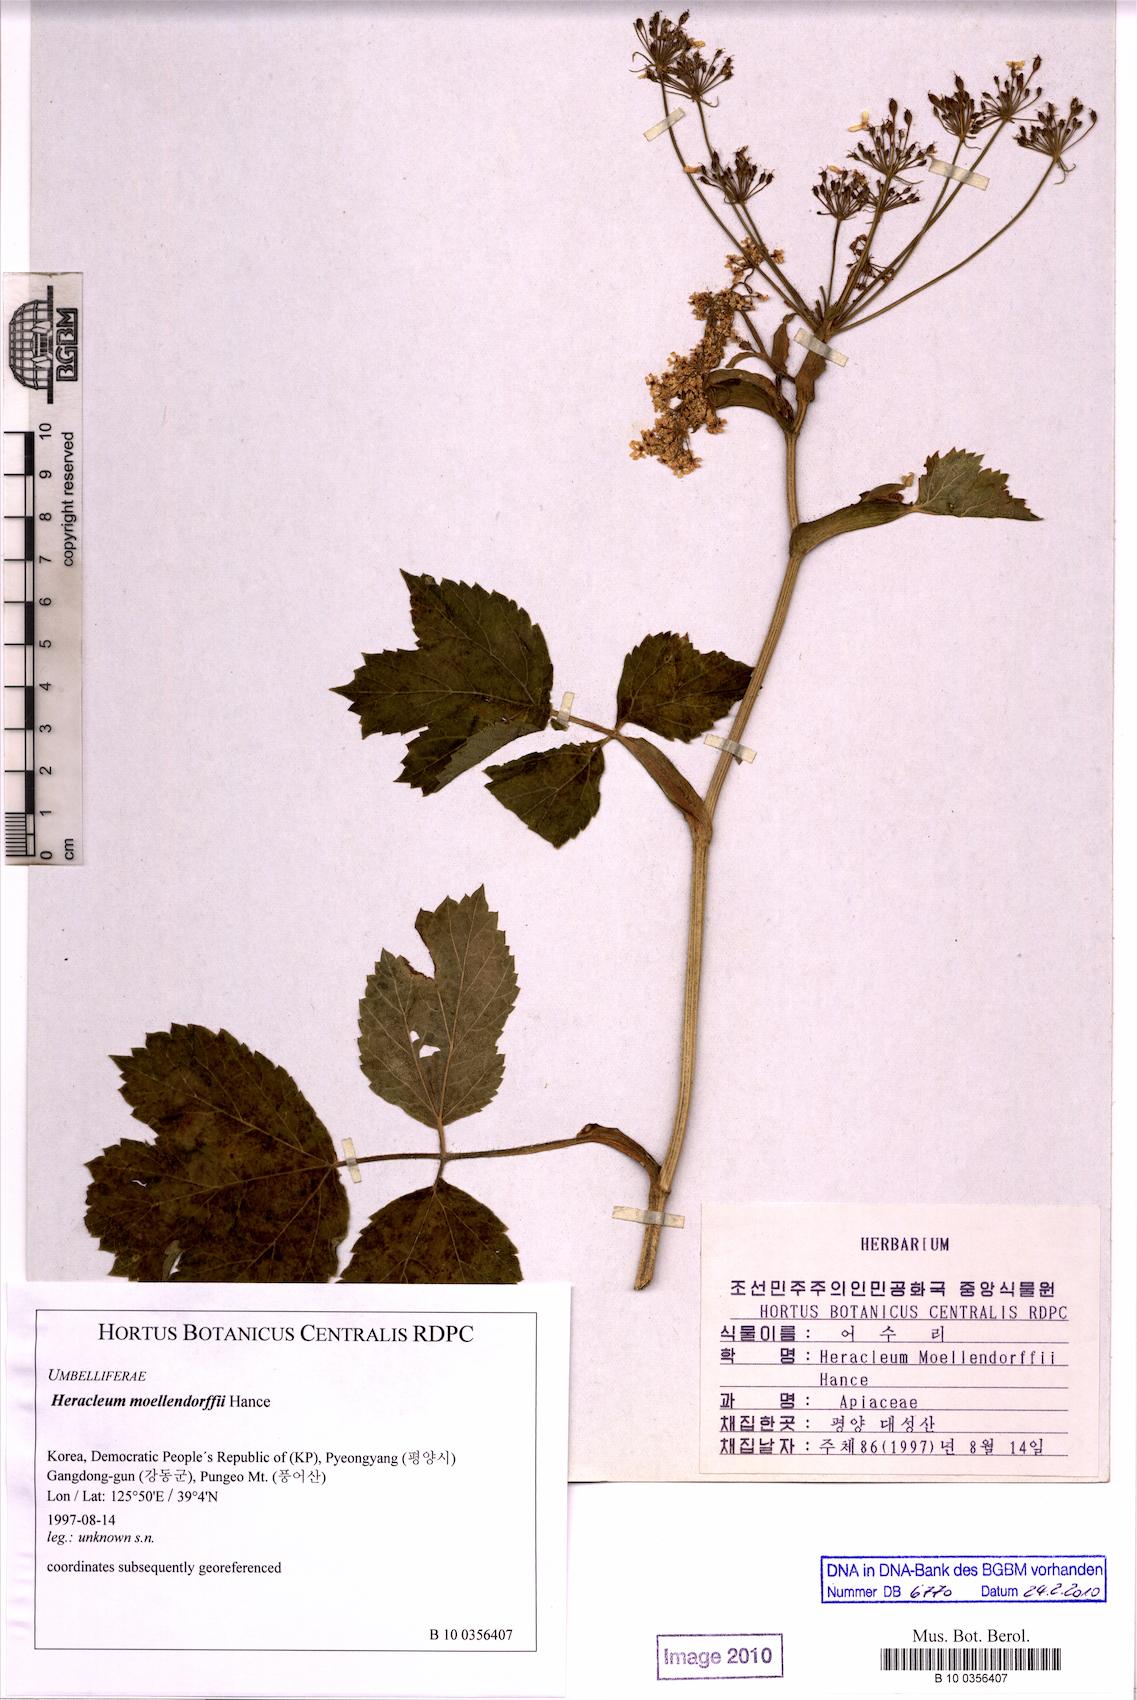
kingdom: Plantae
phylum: Tracheophyta
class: Magnoliopsida
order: Apiales
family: Apiaceae
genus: Heracleum
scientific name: Heracleum moellendorffii
